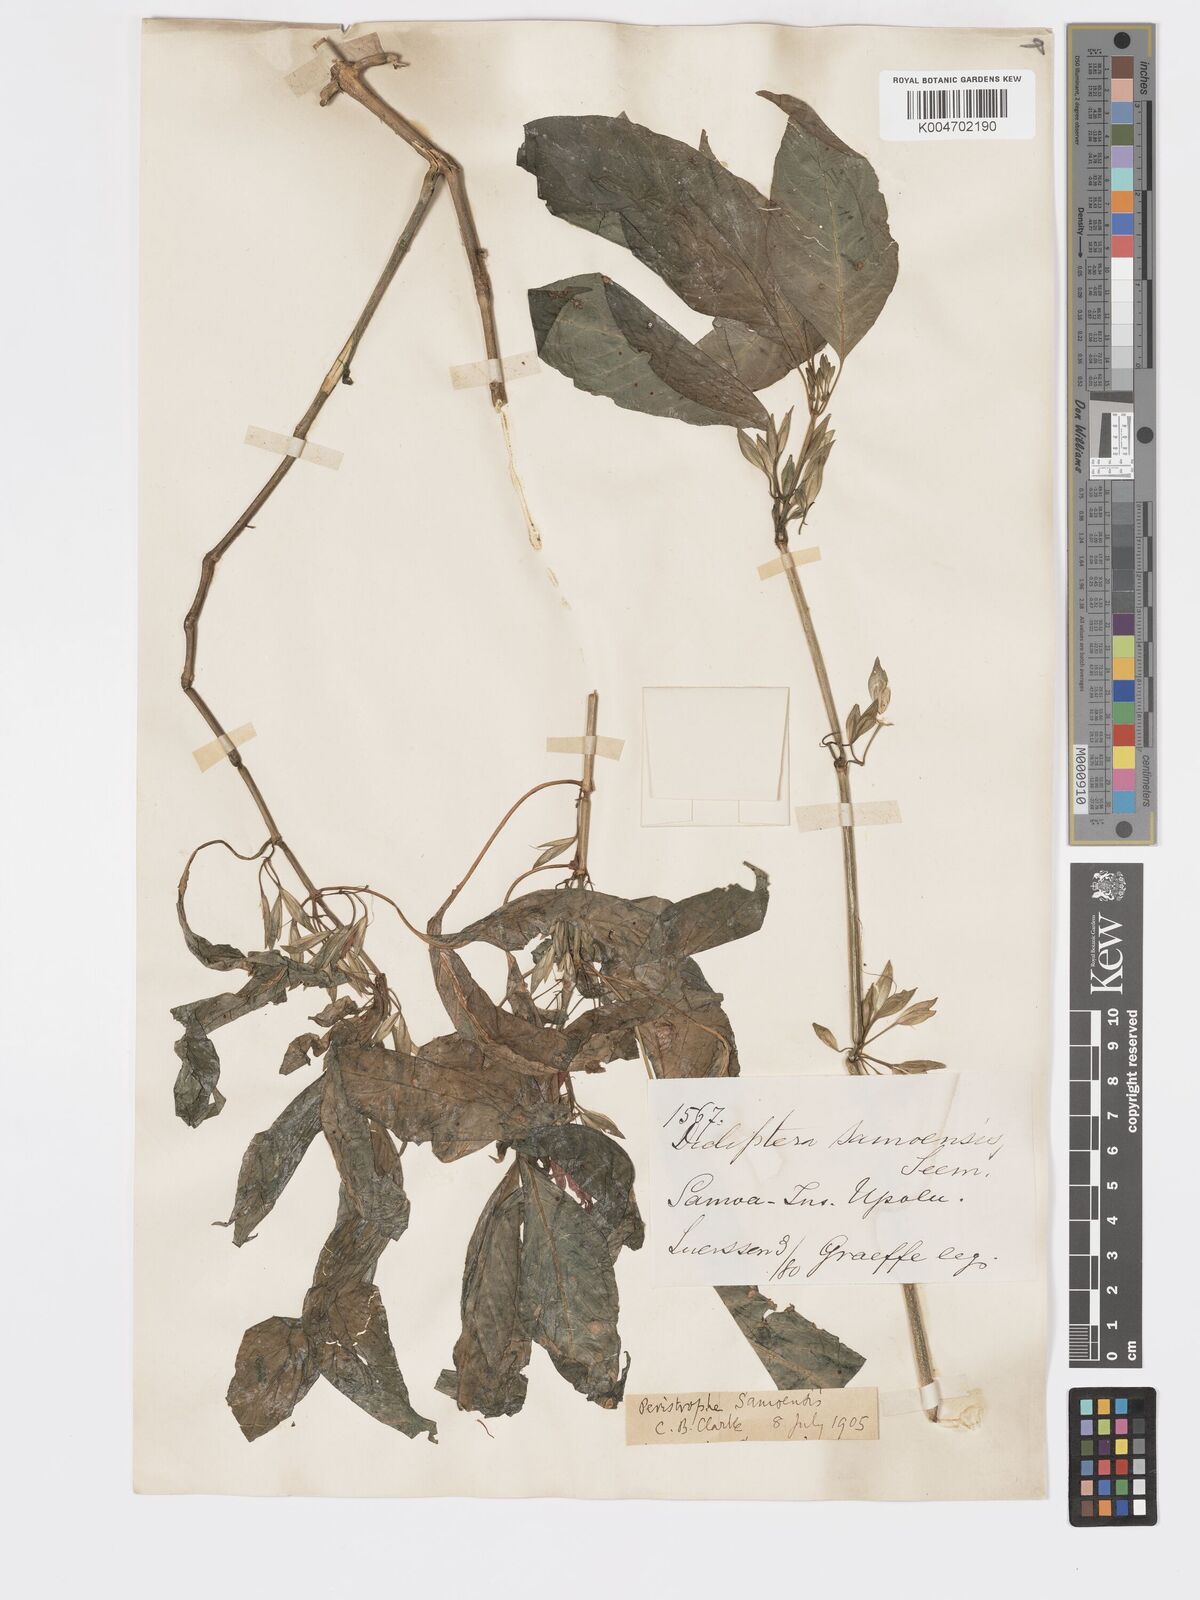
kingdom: Plantae
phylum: Tracheophyta
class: Magnoliopsida
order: Lamiales
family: Acanthaceae
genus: Dicliptera
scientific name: Dicliptera samoensis
